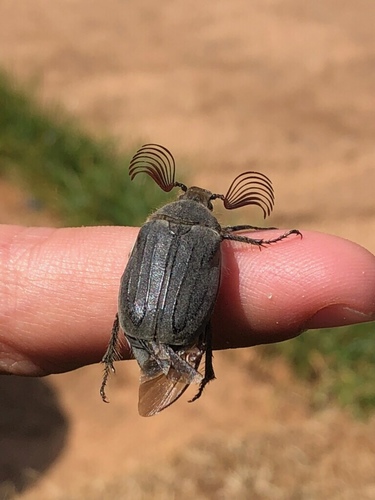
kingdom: Animalia
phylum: Arthropoda
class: Insecta
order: Coleoptera
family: Scarabaeidae
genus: Melolontha
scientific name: Melolontha papposa
